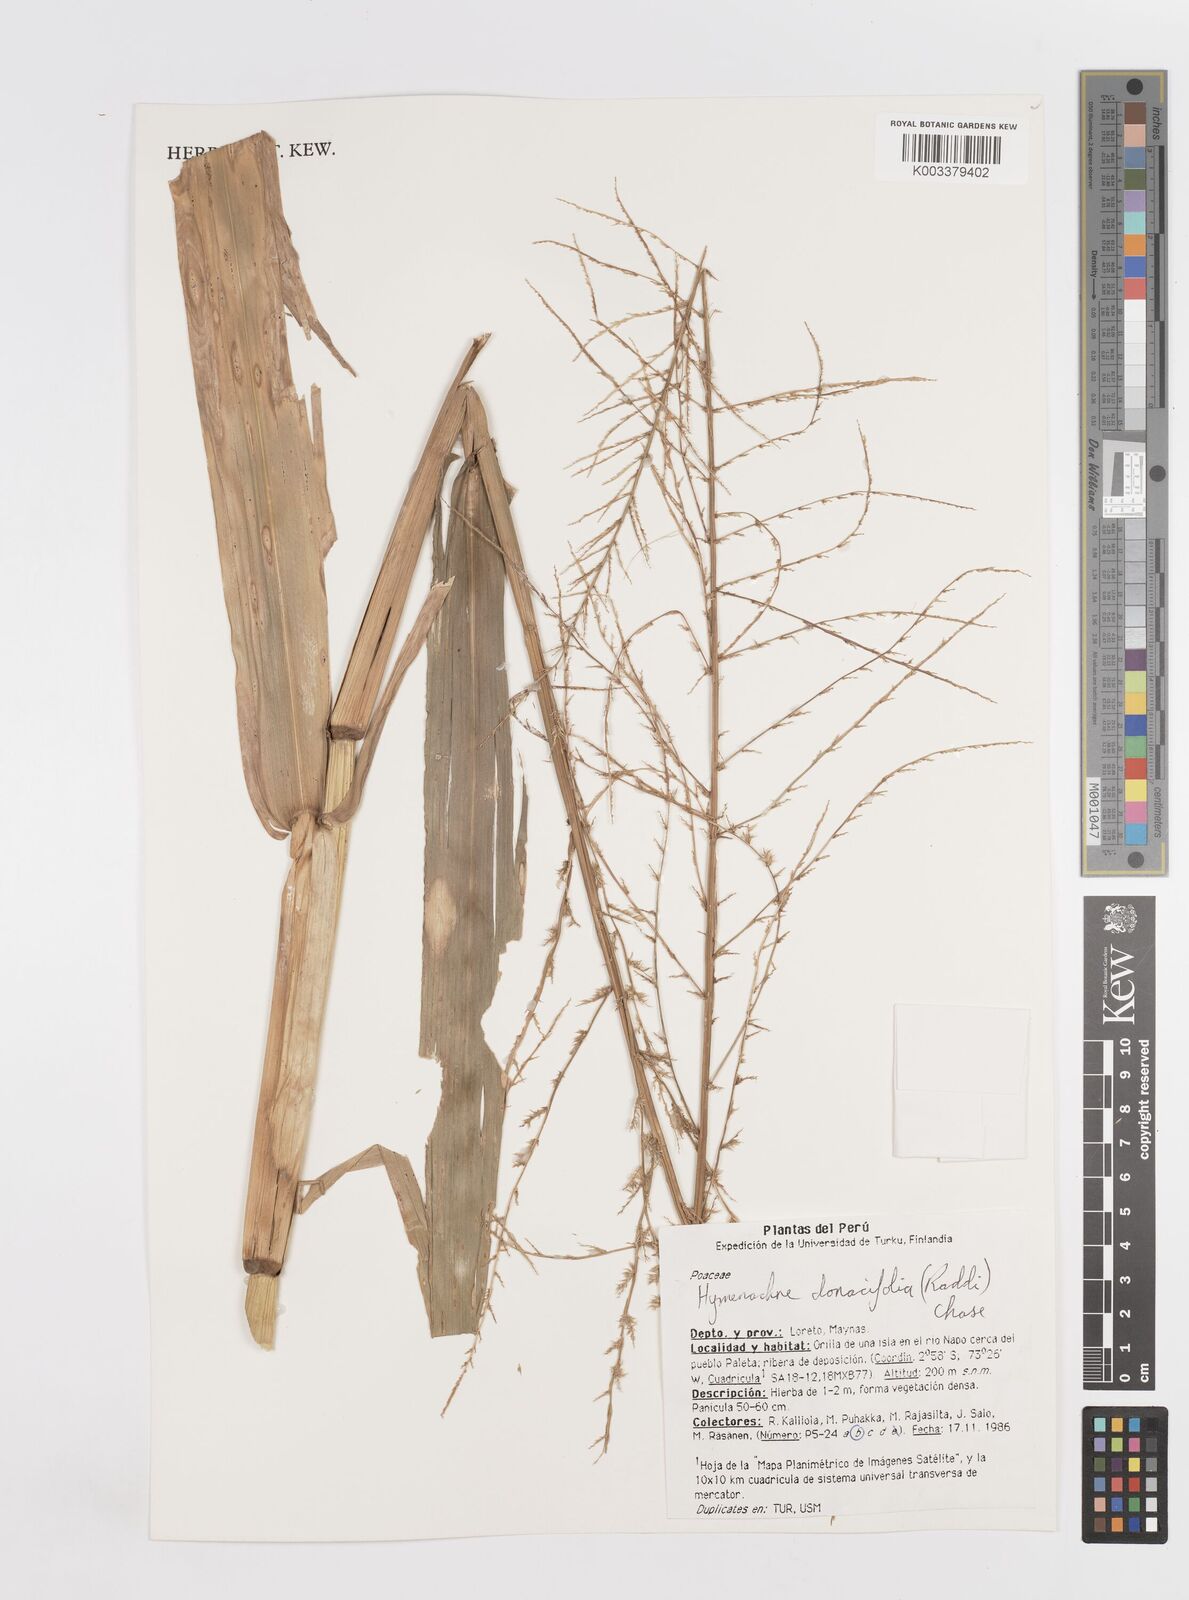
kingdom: Plantae
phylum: Tracheophyta
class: Liliopsida
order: Poales
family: Poaceae
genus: Hymenachne
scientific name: Hymenachne donacifolia
